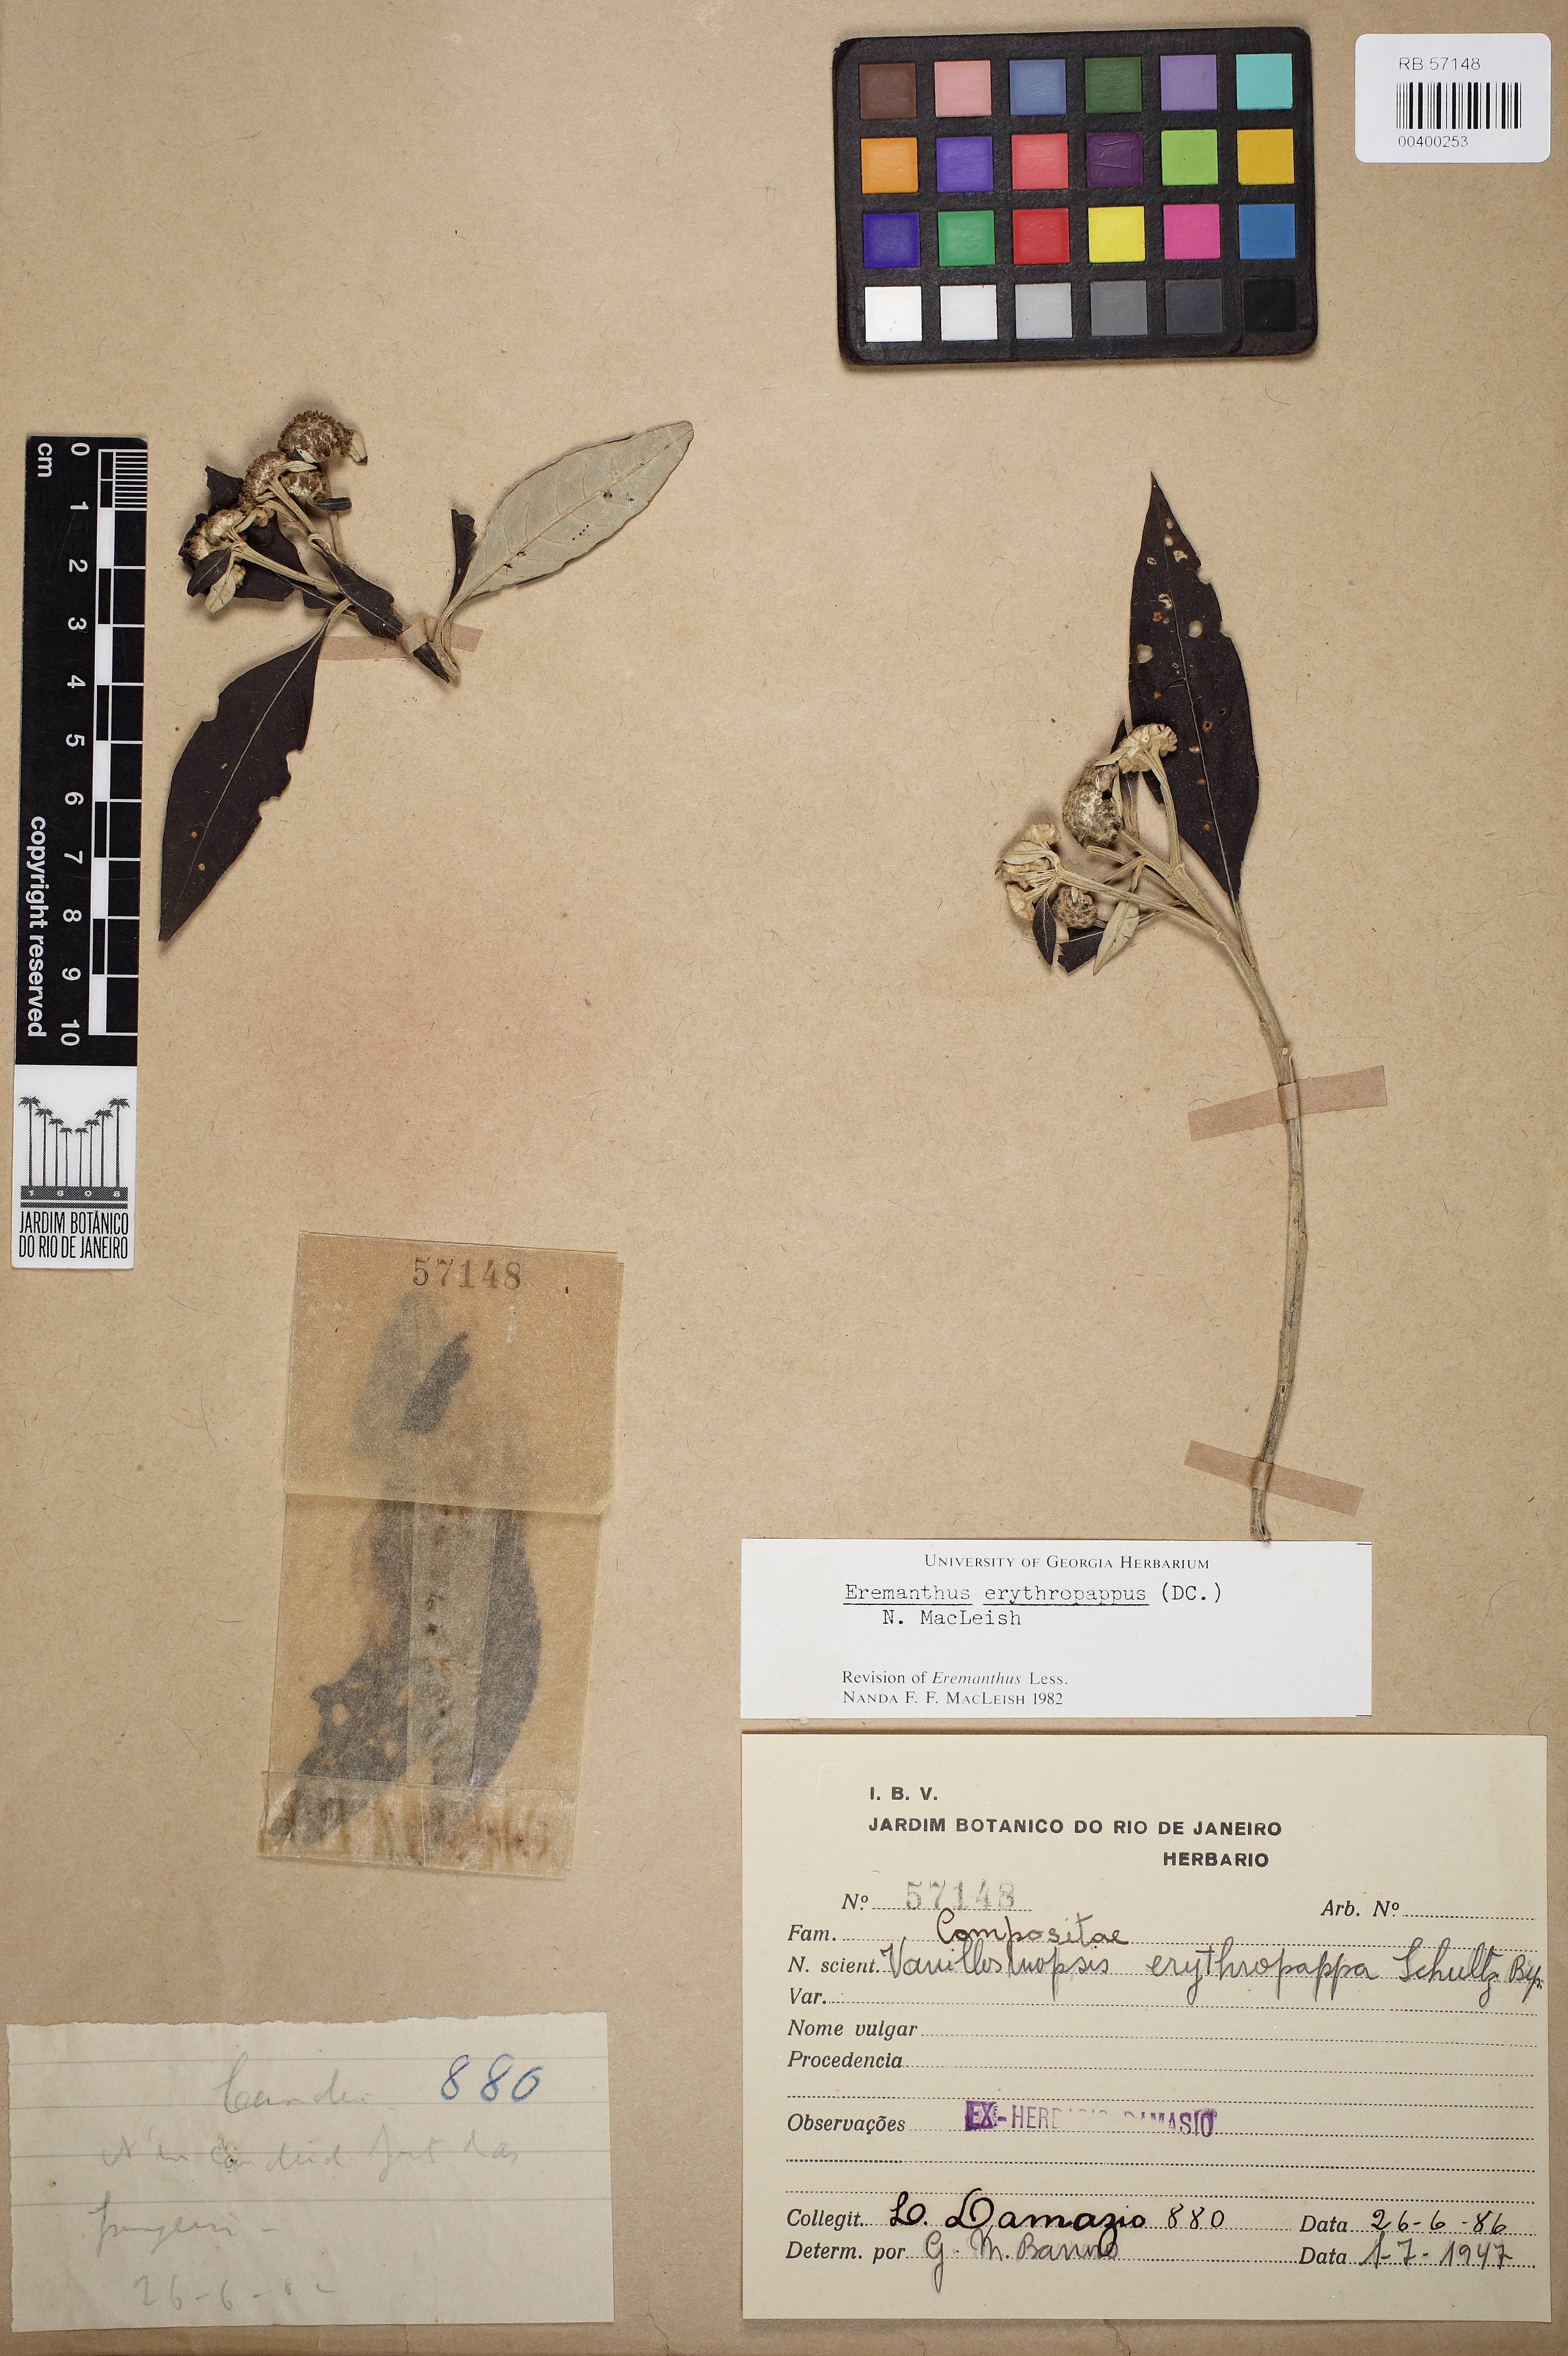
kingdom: Plantae
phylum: Tracheophyta
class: Magnoliopsida
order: Asterales
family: Asteraceae
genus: Eremanthus
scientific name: Eremanthus erythropappus
